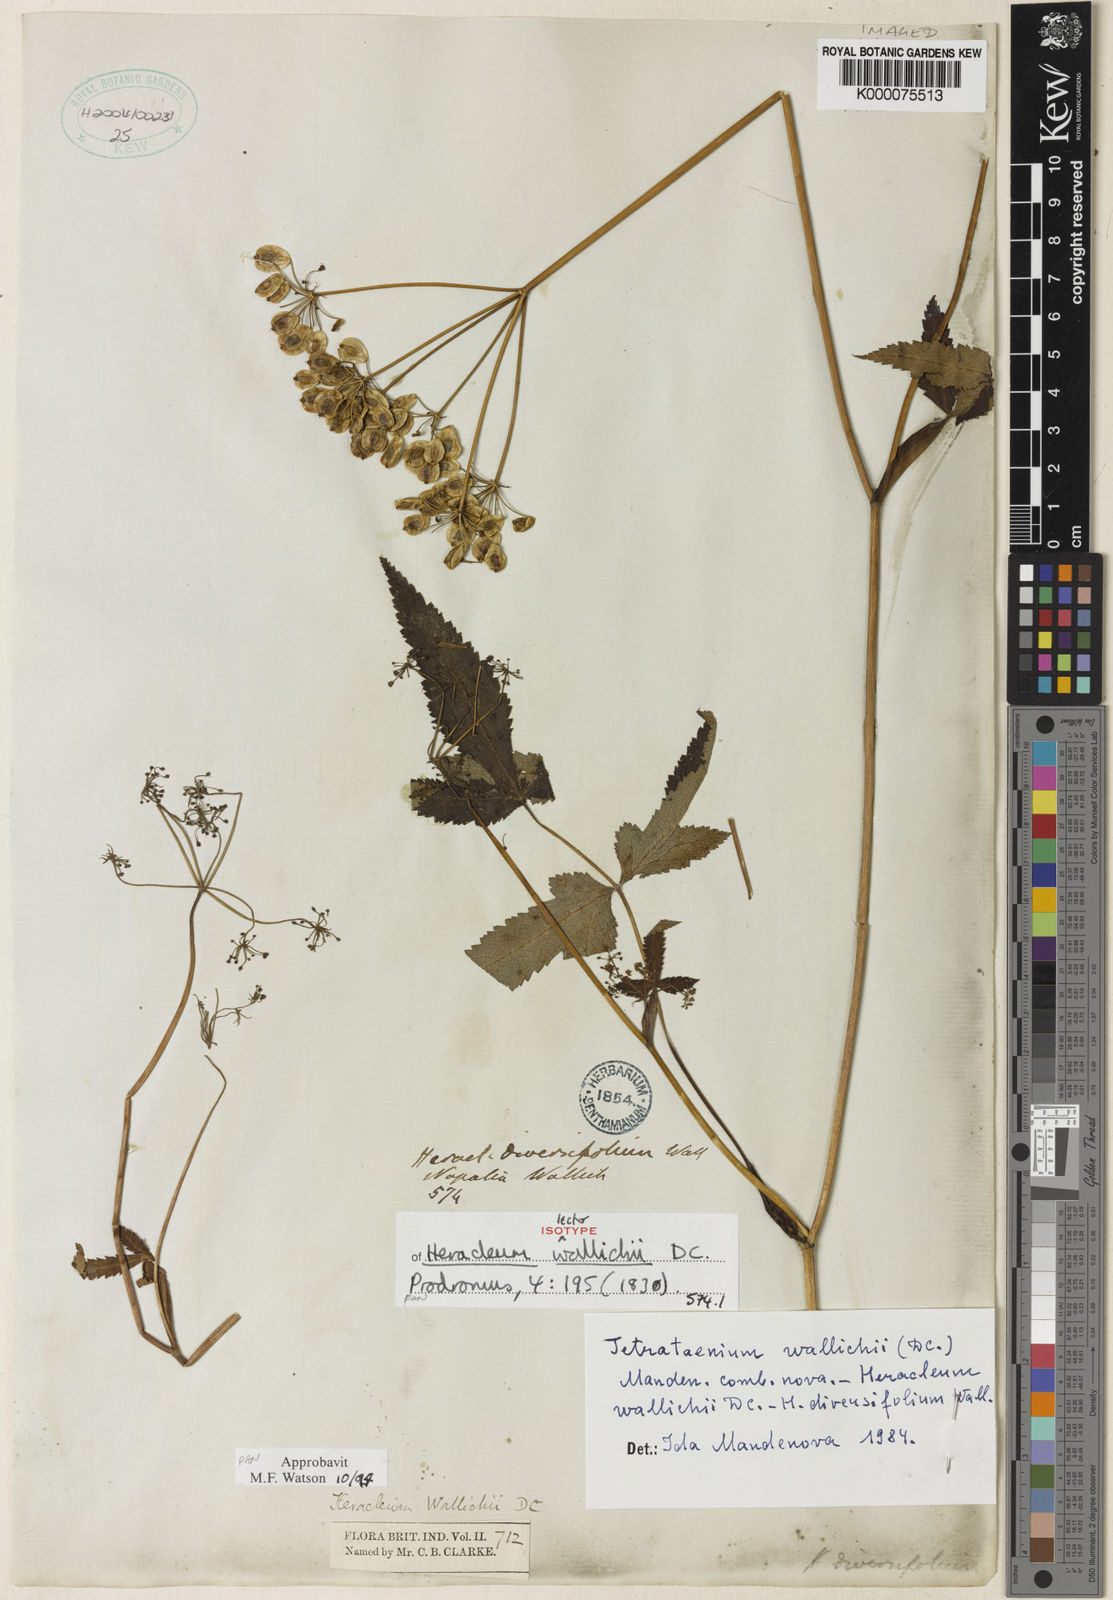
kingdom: Plantae
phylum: Tracheophyta
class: Magnoliopsida
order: Apiales
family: Apiaceae
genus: Tetrataenium
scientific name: Tetrataenium wallichii
